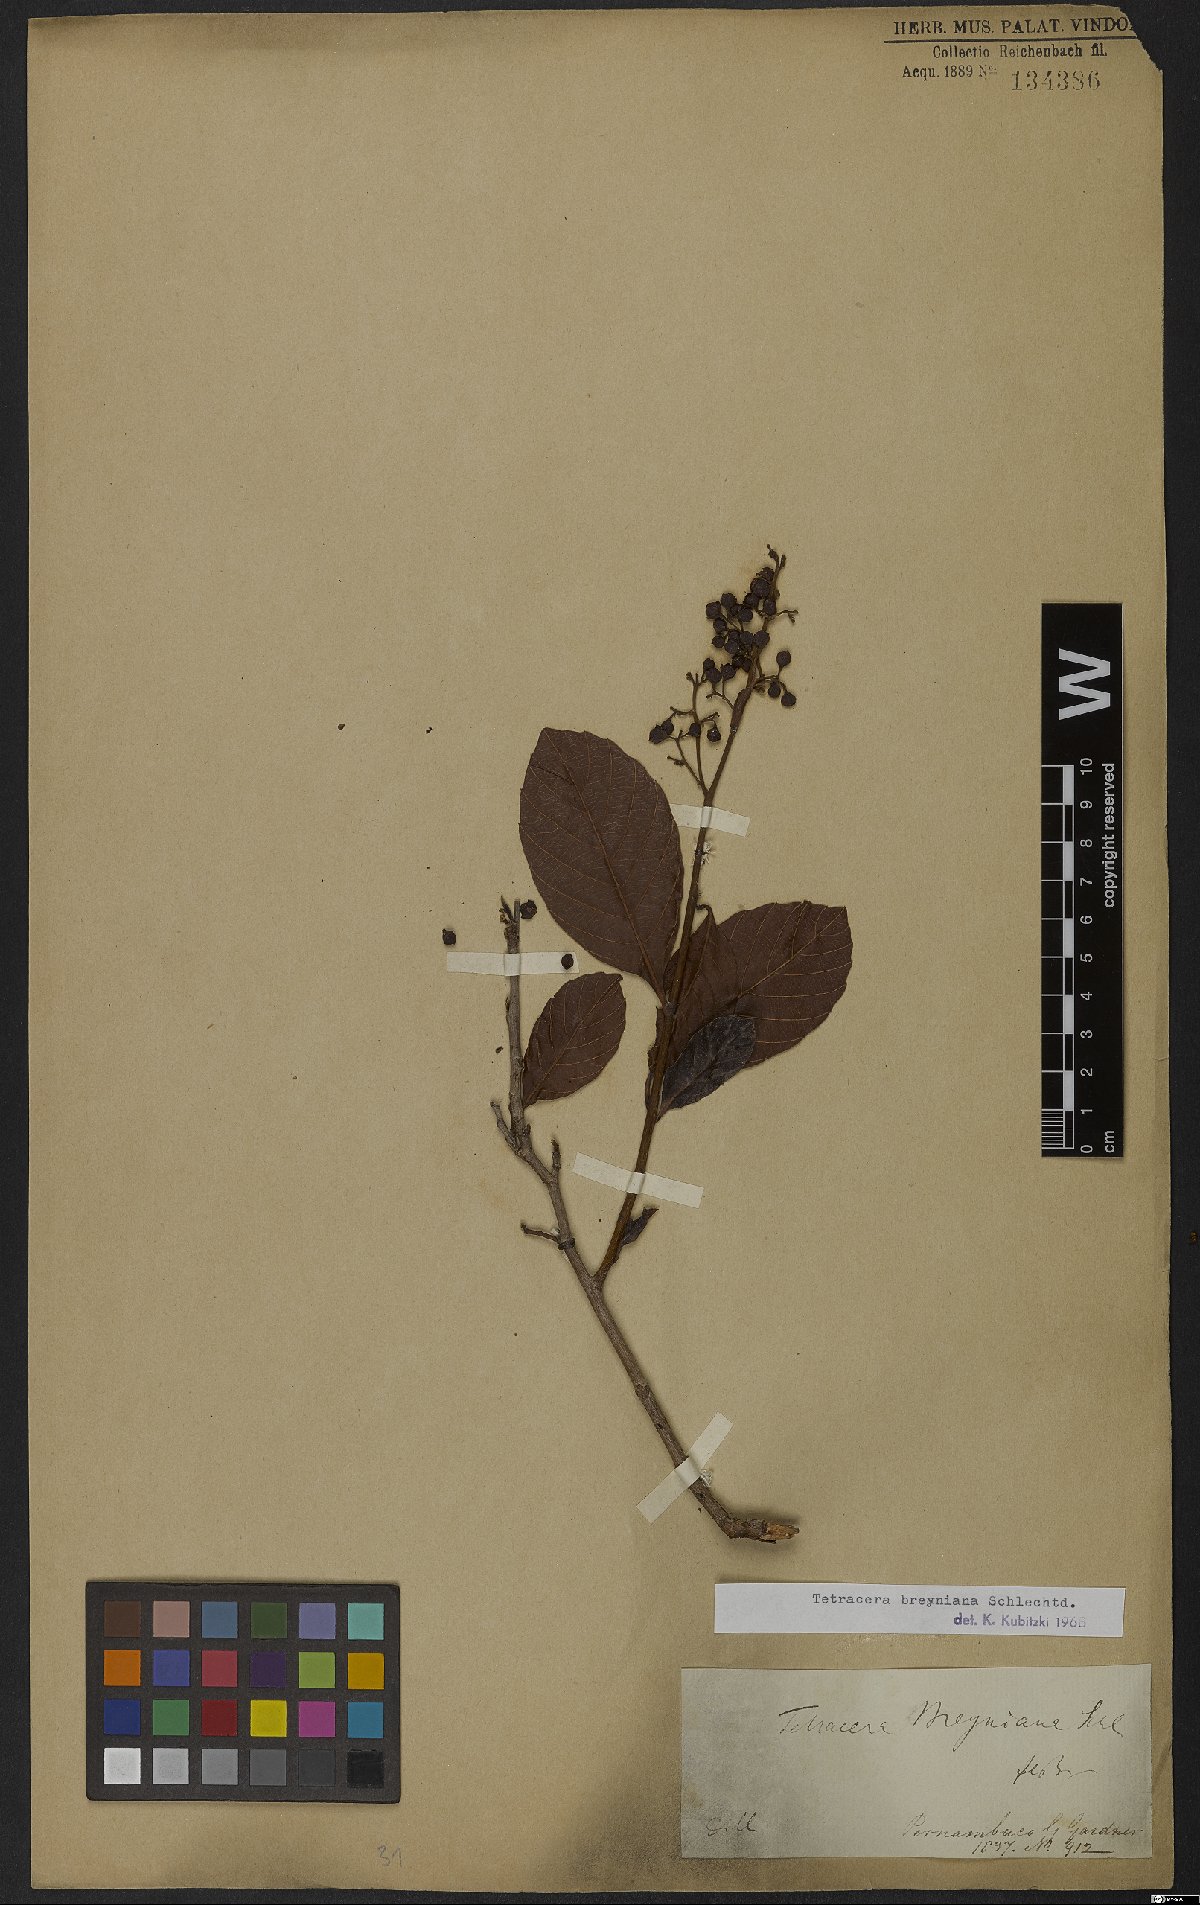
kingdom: Plantae
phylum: Tracheophyta
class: Magnoliopsida
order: Dilleniales
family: Dilleniaceae
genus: Tetracera
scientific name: Tetracera breyniana
